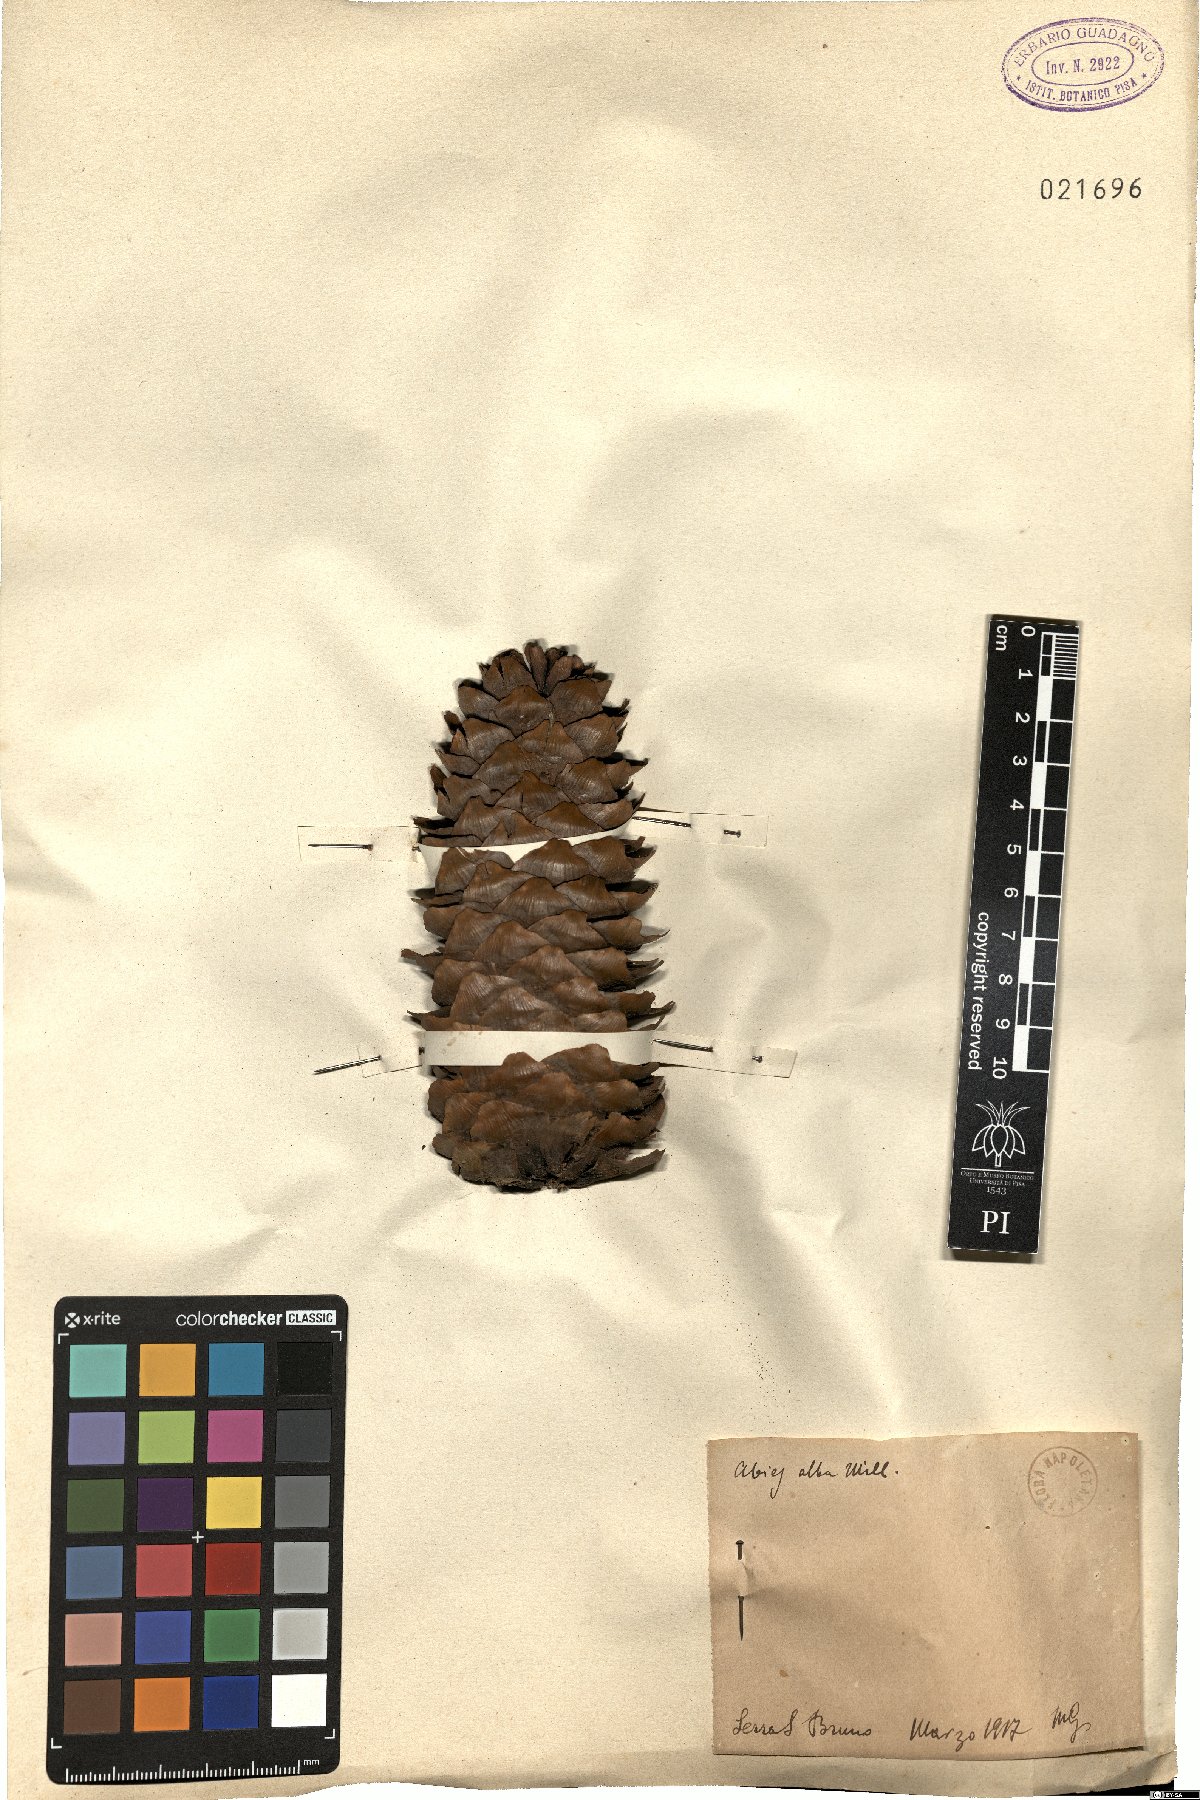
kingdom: Plantae
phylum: Tracheophyta
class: Pinopsida
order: Pinales
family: Pinaceae
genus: Abies
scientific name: Abies alba
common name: Silver fir
